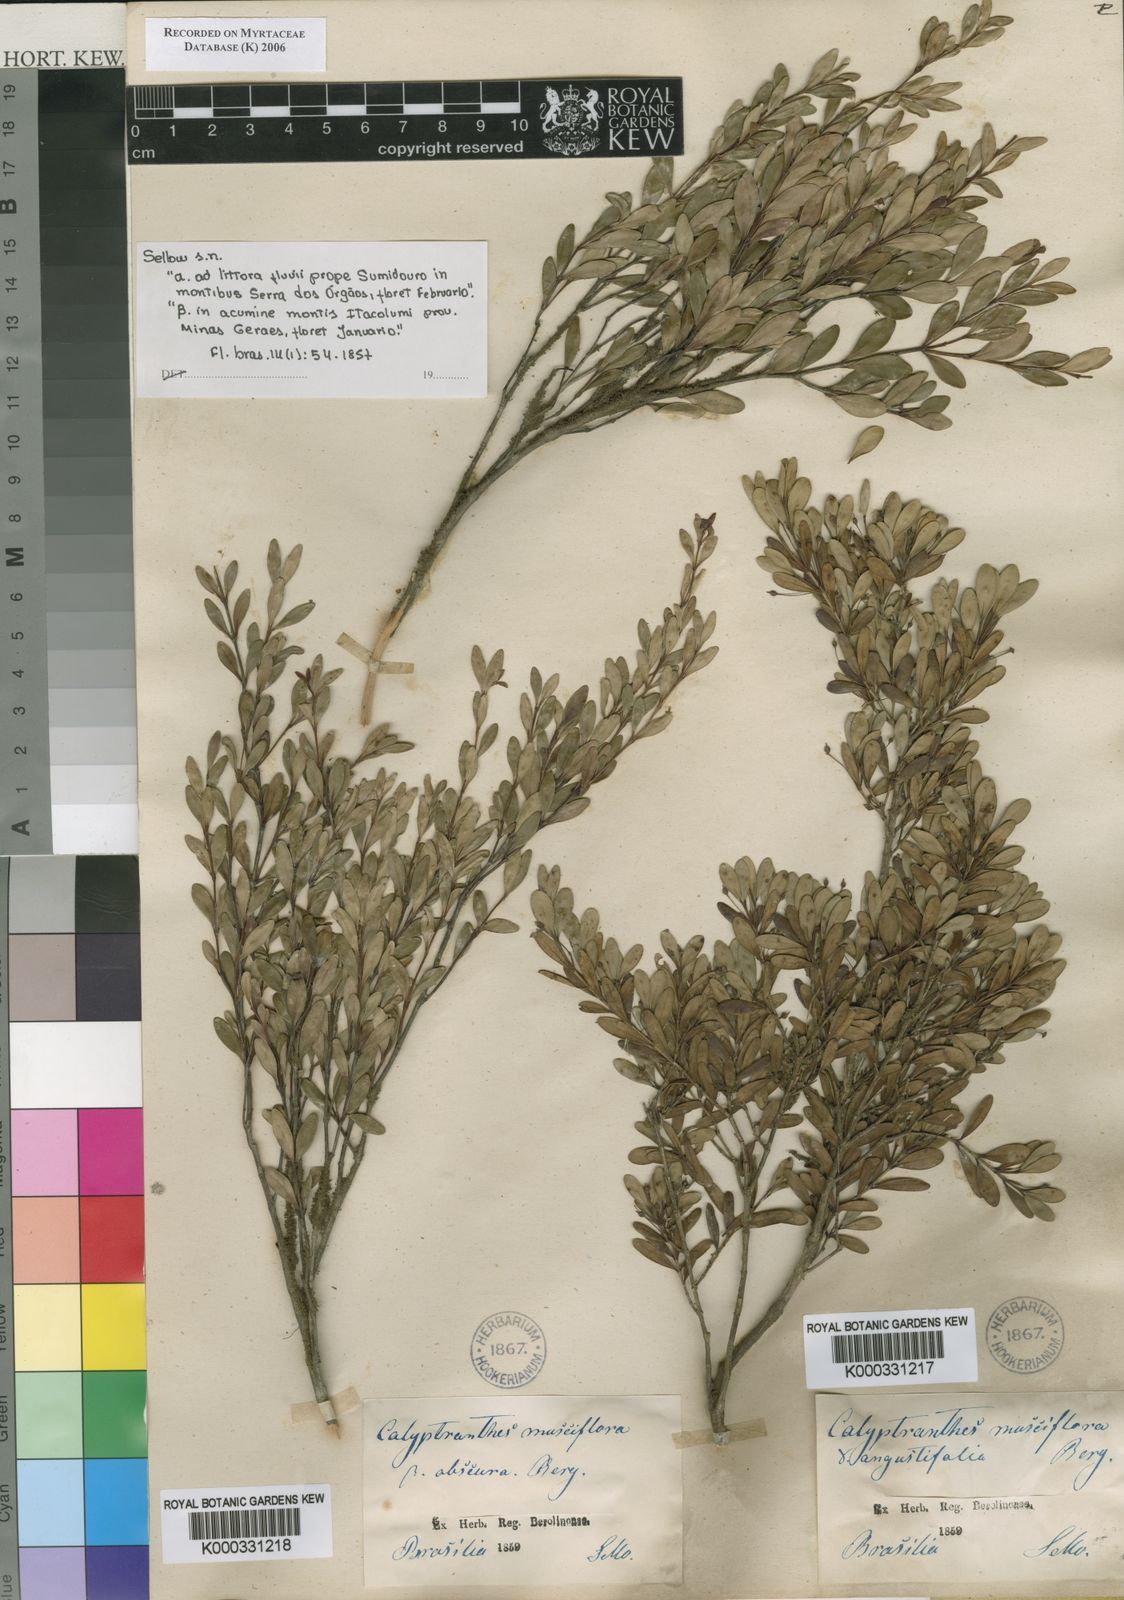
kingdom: Plantae
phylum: Tracheophyta
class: Magnoliopsida
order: Myrtales
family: Myrtaceae
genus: Myrcia
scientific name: Myrcia grammica
